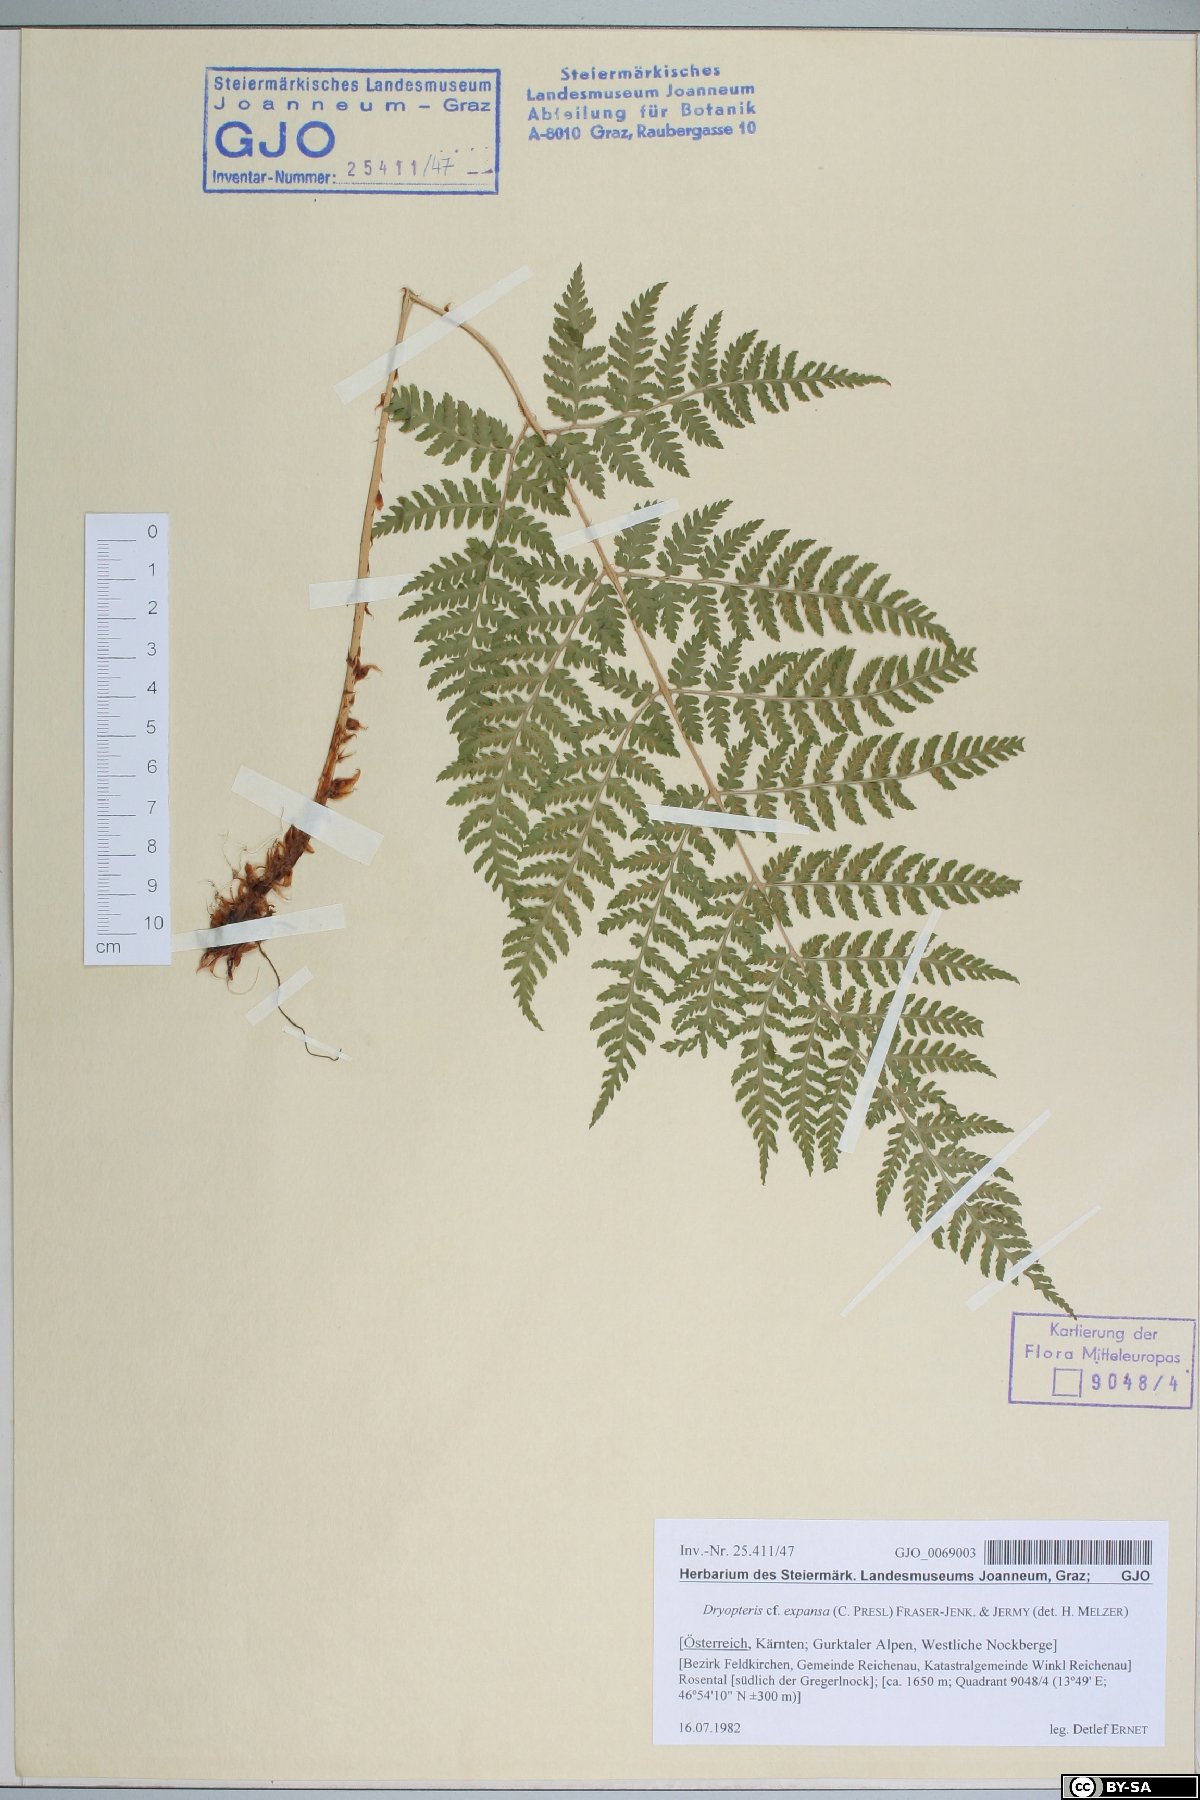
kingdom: Plantae
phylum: Tracheophyta
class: Polypodiopsida
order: Polypodiales
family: Dryopteridaceae
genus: Dryopteris
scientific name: Dryopteris expansa
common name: Northern buckler fern
